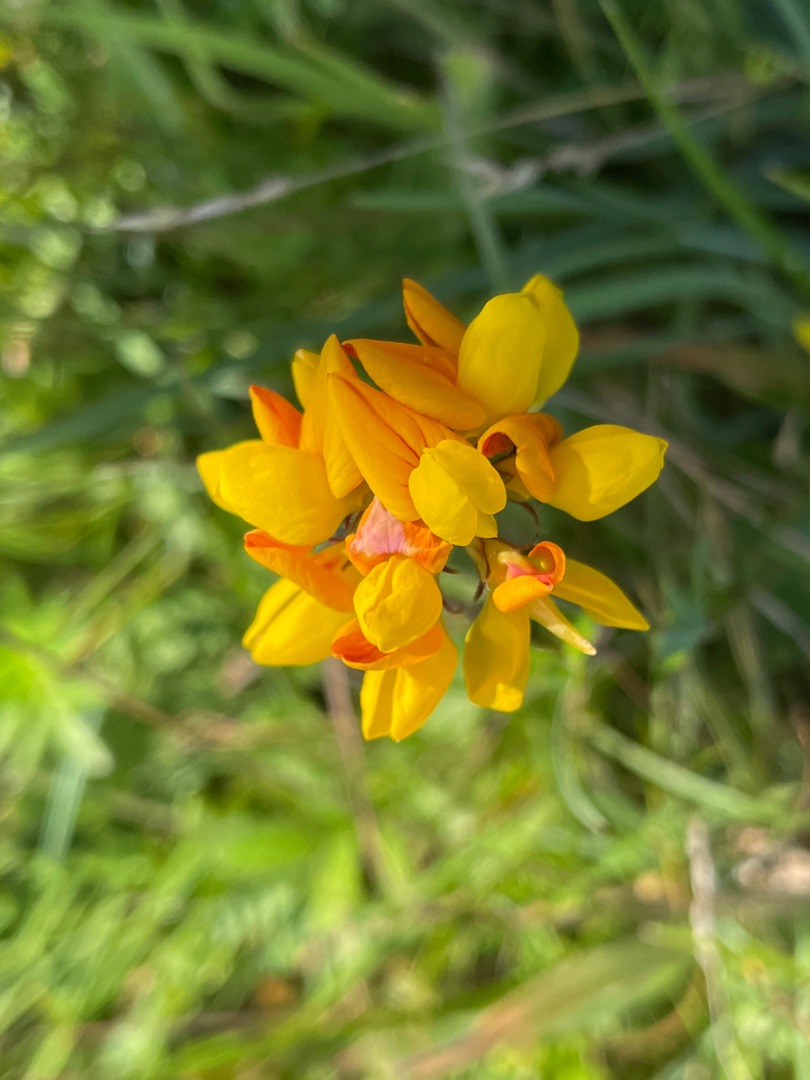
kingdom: Plantae
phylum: Tracheophyta
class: Magnoliopsida
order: Fabales
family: Fabaceae
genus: Lotus
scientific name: Lotus pedunculatus
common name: Sump-kællingetand
